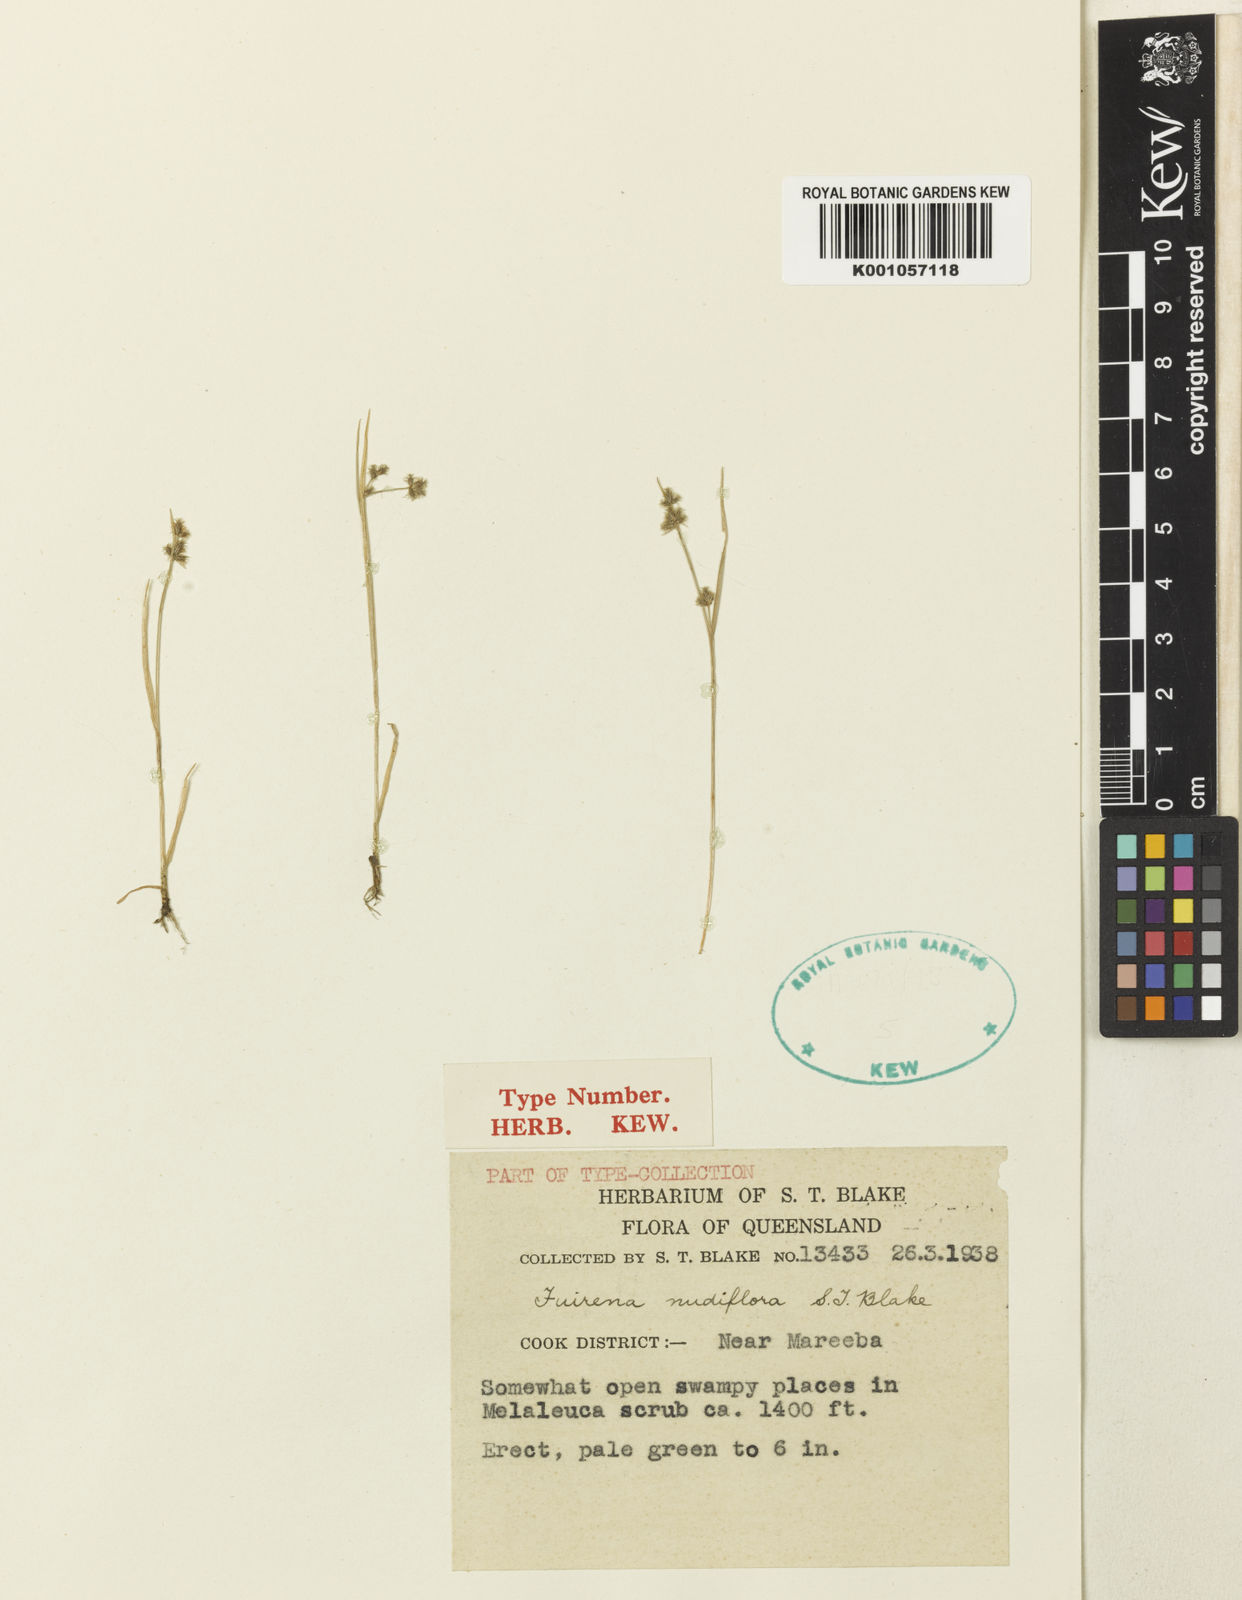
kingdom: Plantae
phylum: Tracheophyta
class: Liliopsida
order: Poales
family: Cyperaceae
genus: Fuirena
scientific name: Fuirena nudiflora
